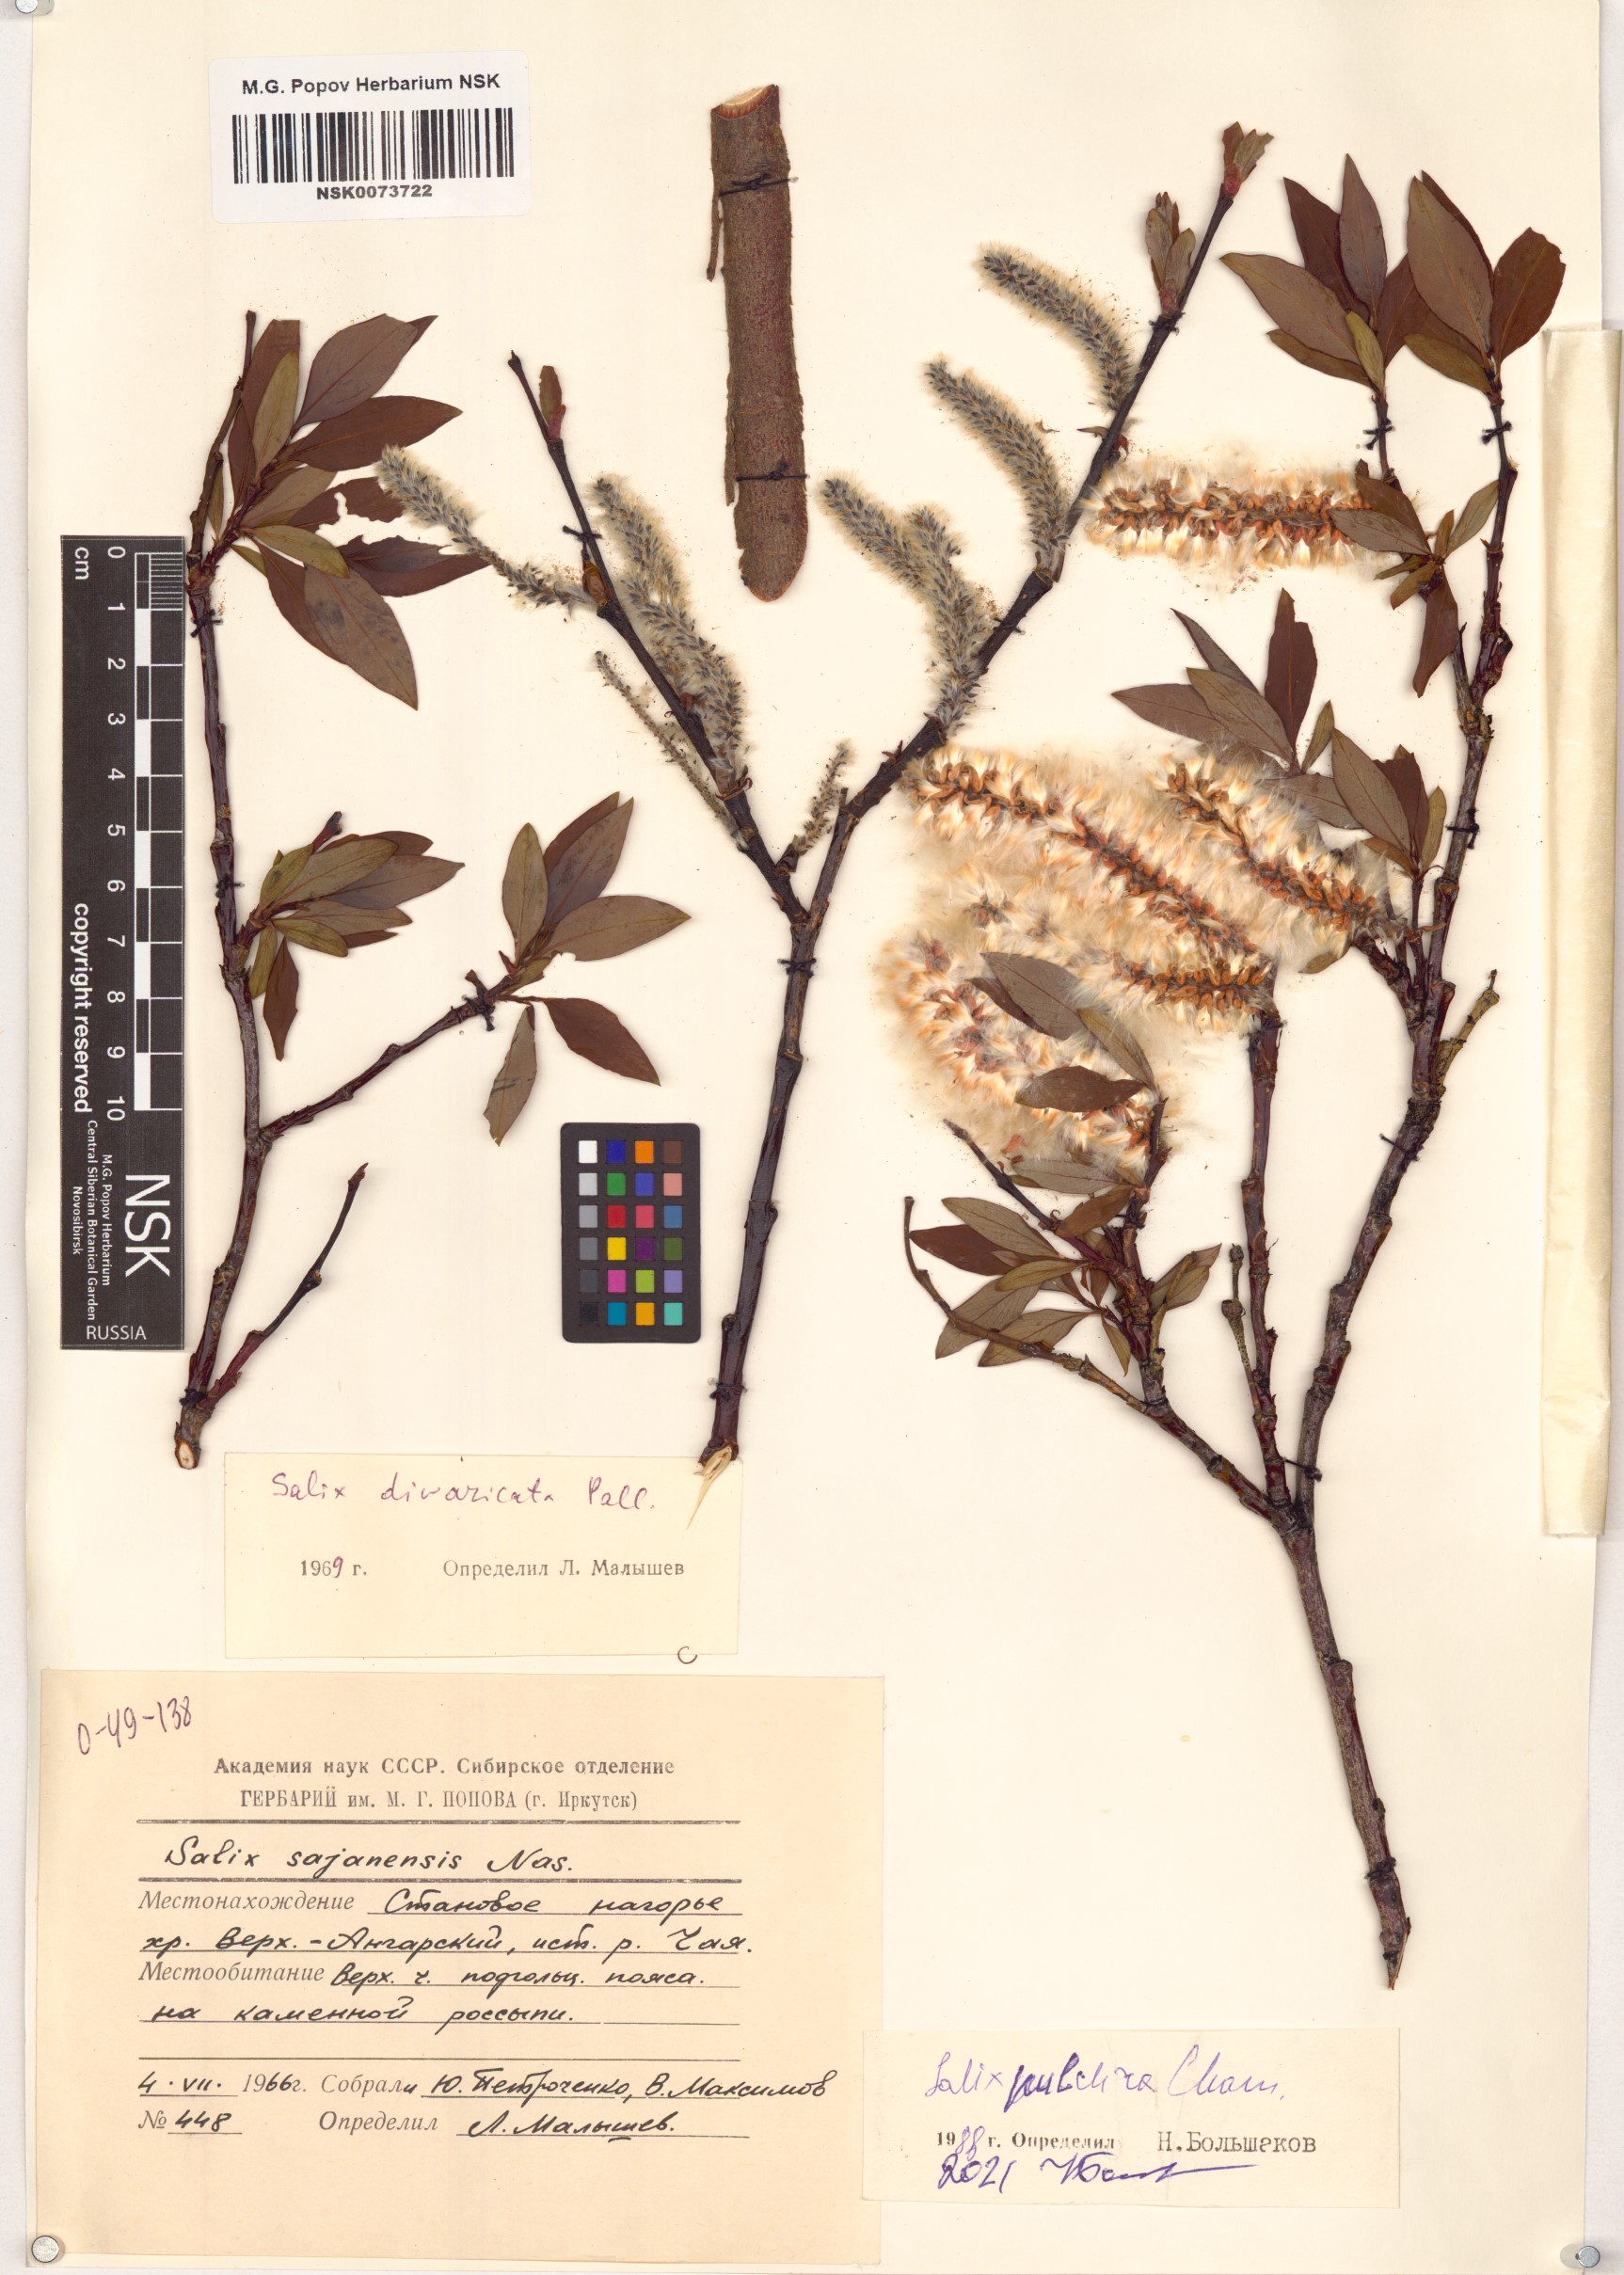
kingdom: Plantae
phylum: Tracheophyta
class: Magnoliopsida
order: Malpighiales
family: Salicaceae
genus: Salix
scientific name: Salix pulchra
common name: Diamond-leaved willow
